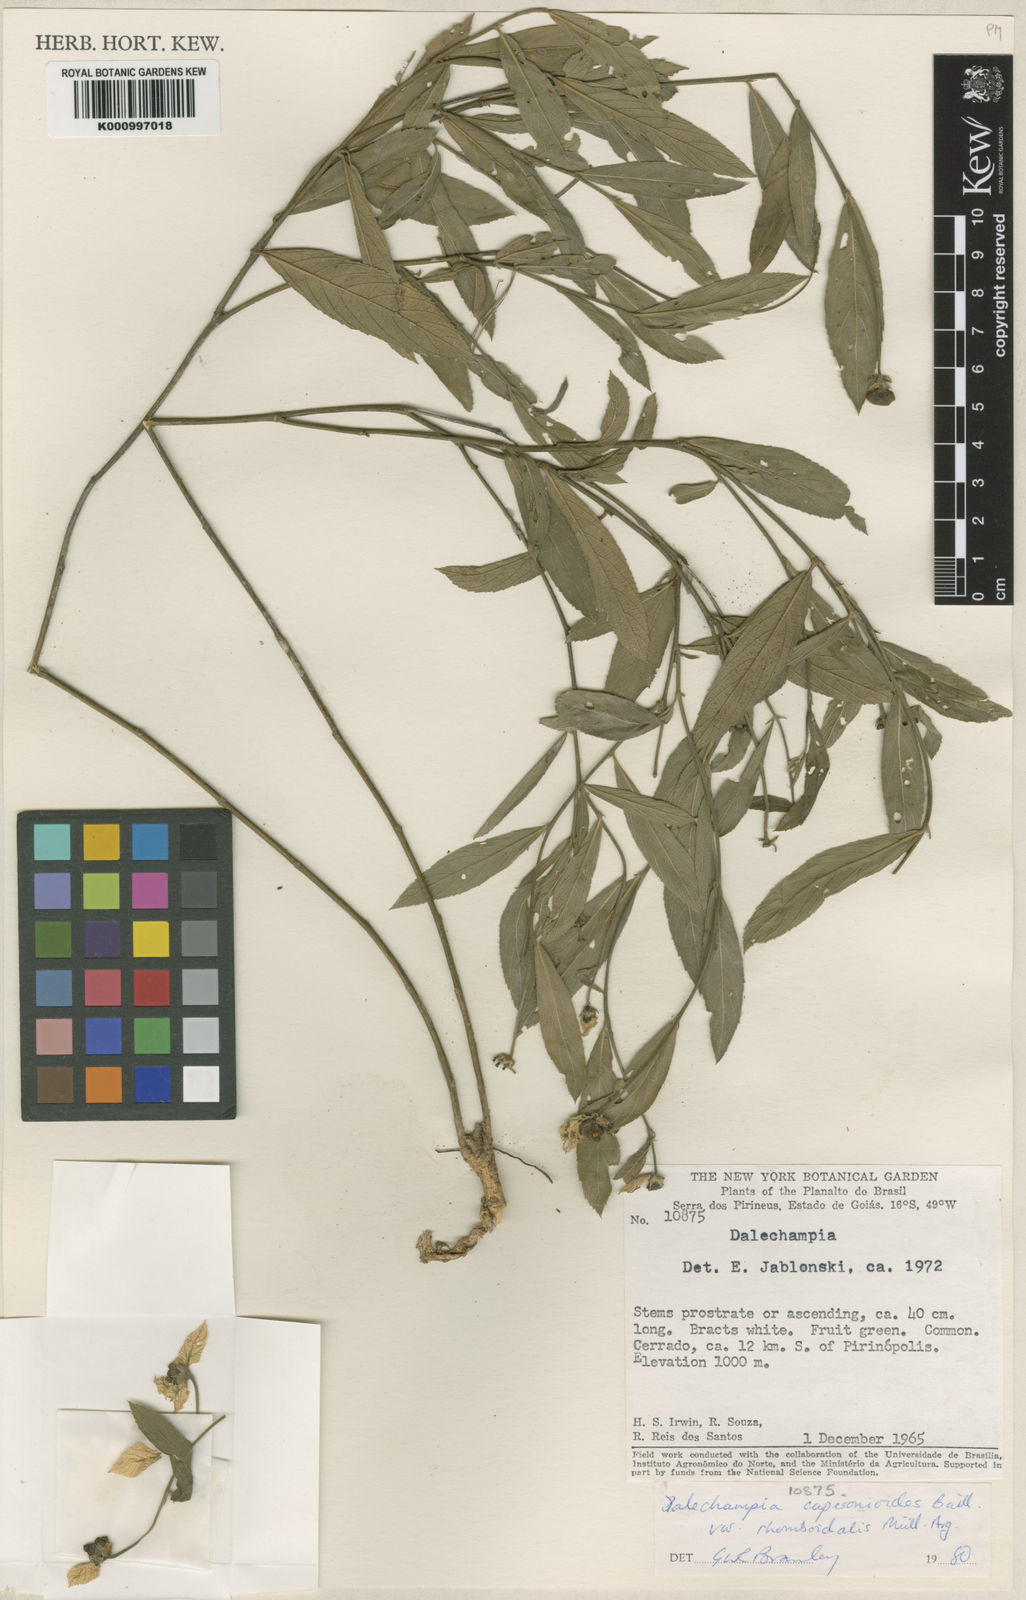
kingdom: Plantae
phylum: Tracheophyta
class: Magnoliopsida
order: Malpighiales
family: Euphorbiaceae
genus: Dalechampia
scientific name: Dalechampia caperonioides
